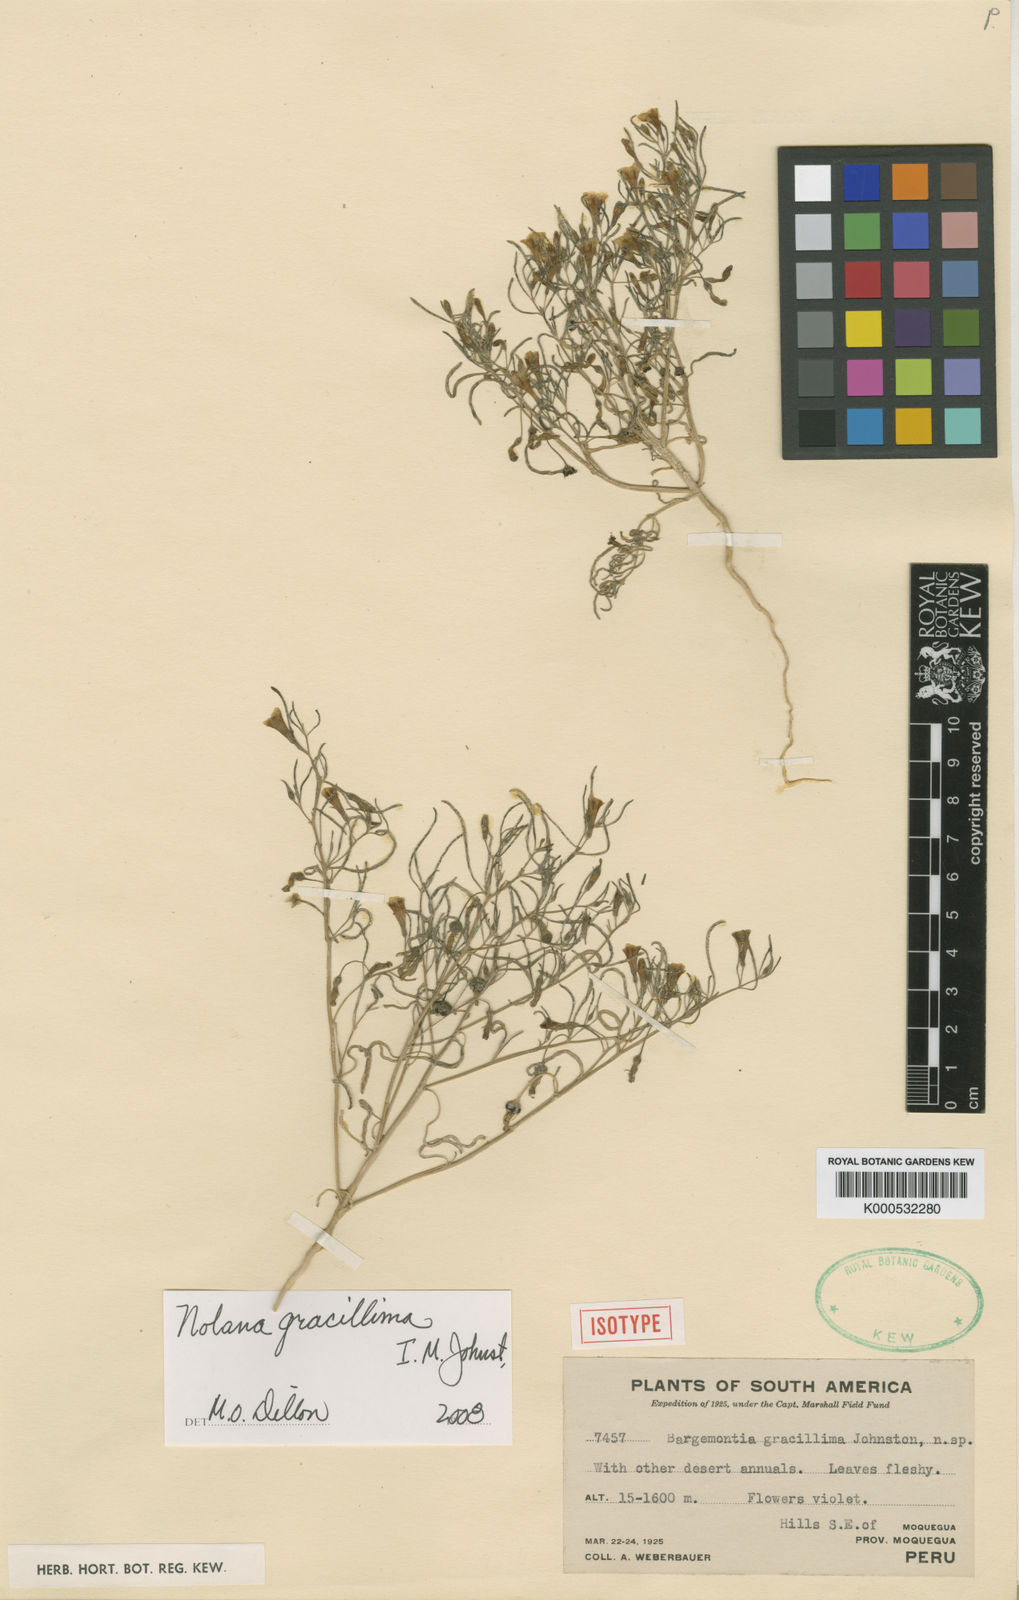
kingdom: Plantae
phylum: Tracheophyta
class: Magnoliopsida
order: Solanales
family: Solanaceae
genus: Nolana
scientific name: Nolana lycioides
